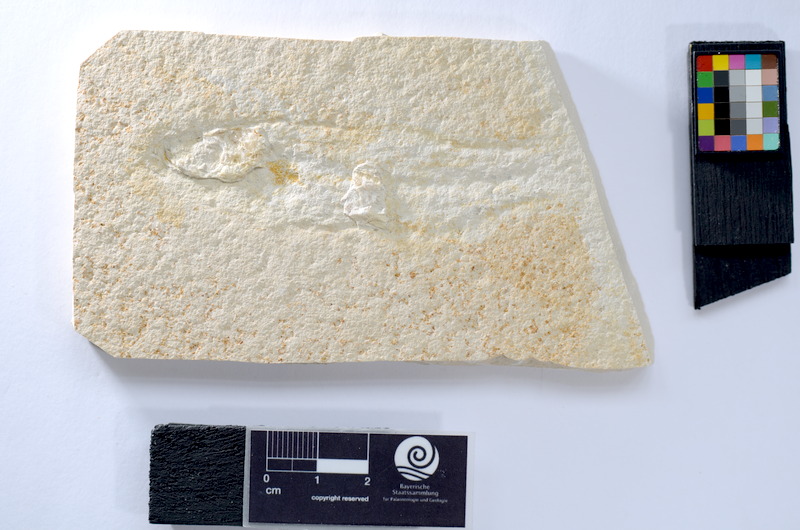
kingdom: Animalia
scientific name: Animalia
